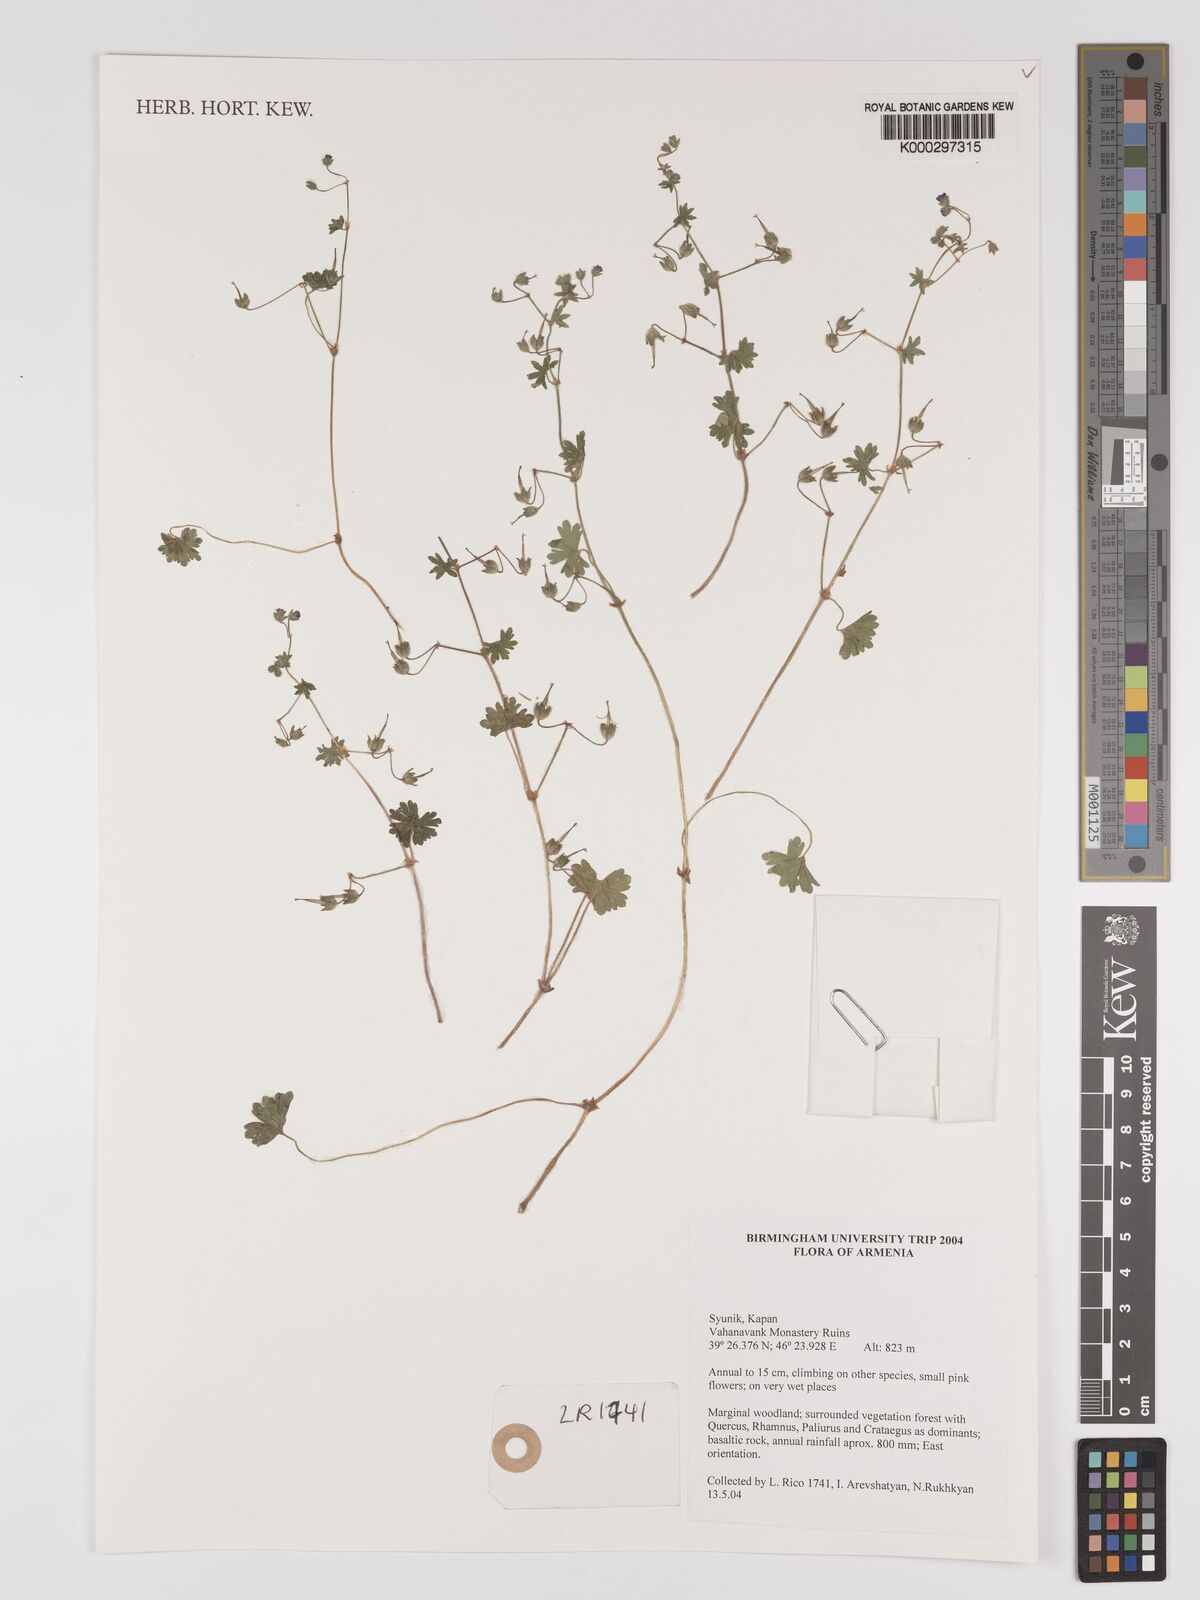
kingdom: Plantae
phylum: Tracheophyta
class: Magnoliopsida
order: Geraniales
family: Geraniaceae
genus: Geranium
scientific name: Geranium
